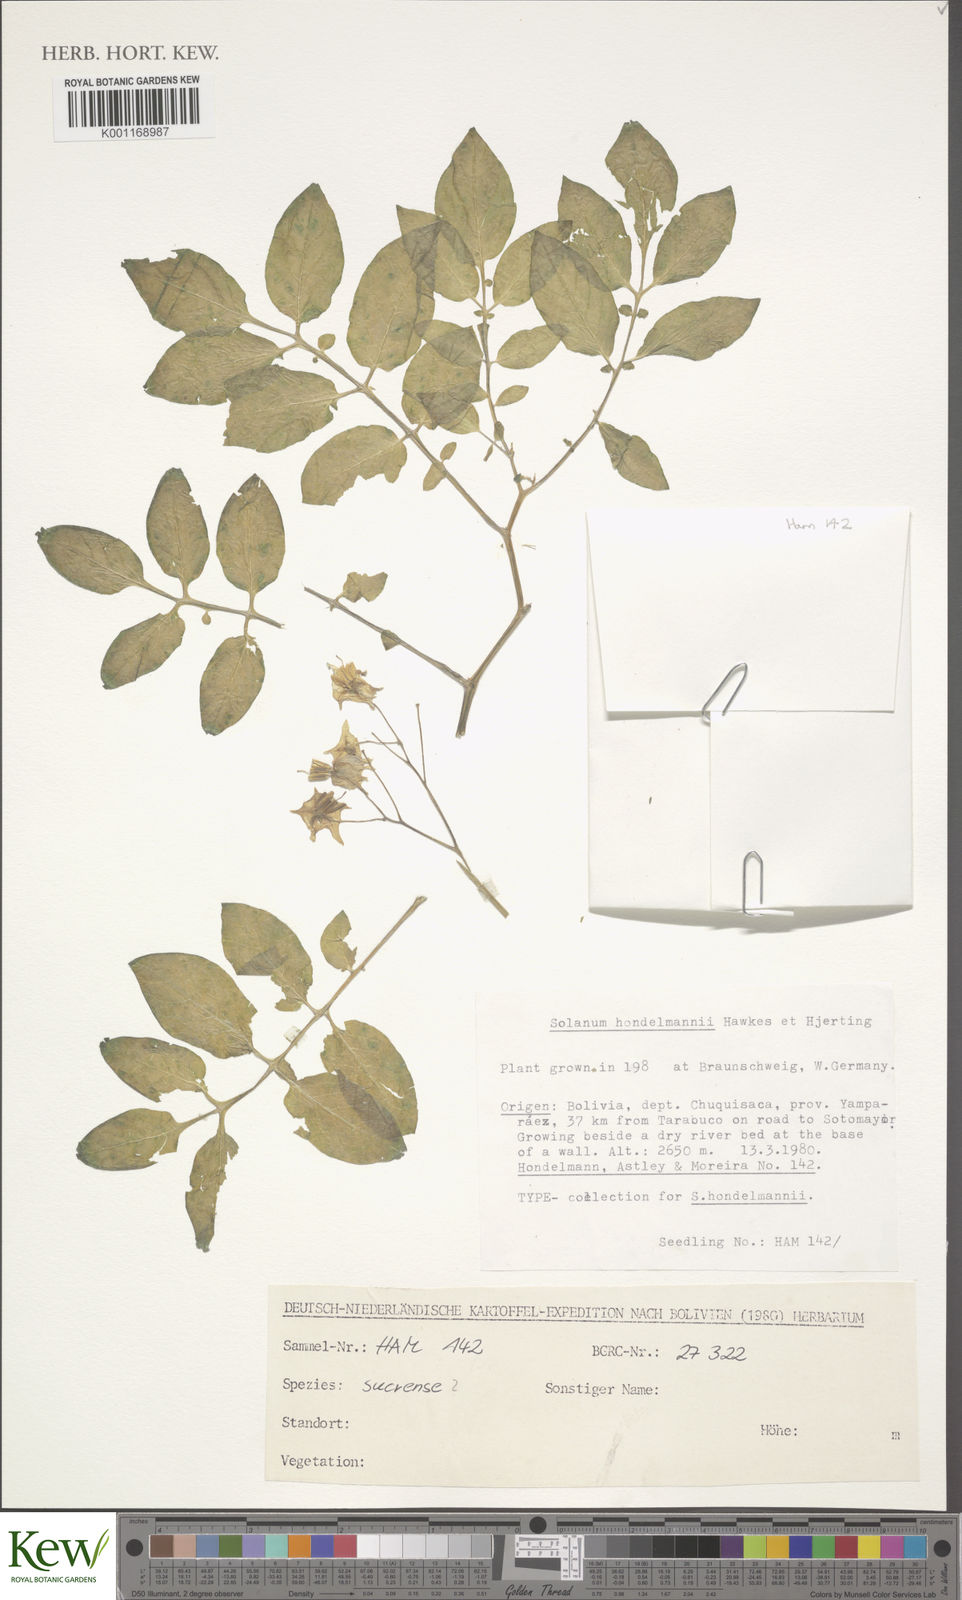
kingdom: Plantae
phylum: Tracheophyta
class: Magnoliopsida
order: Solanales
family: Solanaceae
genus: Solanum
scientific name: Solanum brevicaule
